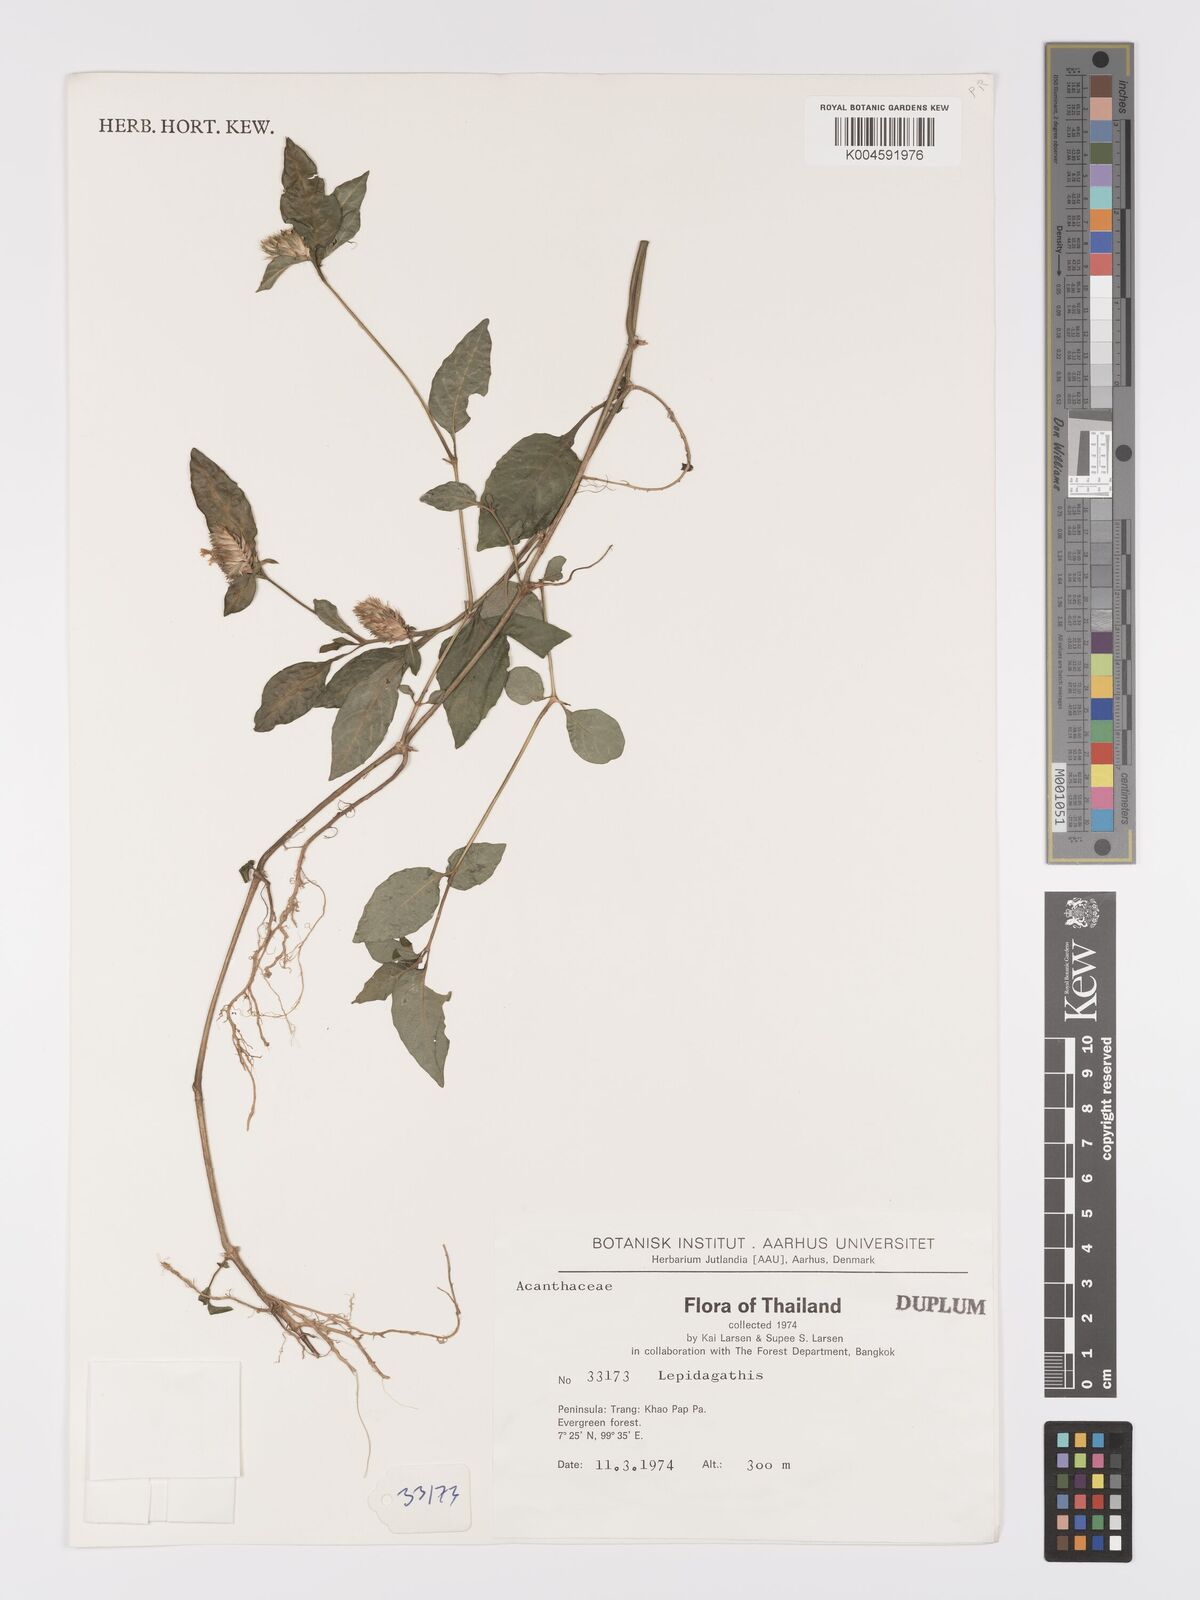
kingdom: Plantae
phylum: Tracheophyta
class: Magnoliopsida
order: Lamiales
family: Acanthaceae
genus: Lepidagathis
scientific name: Lepidagathis incurva
